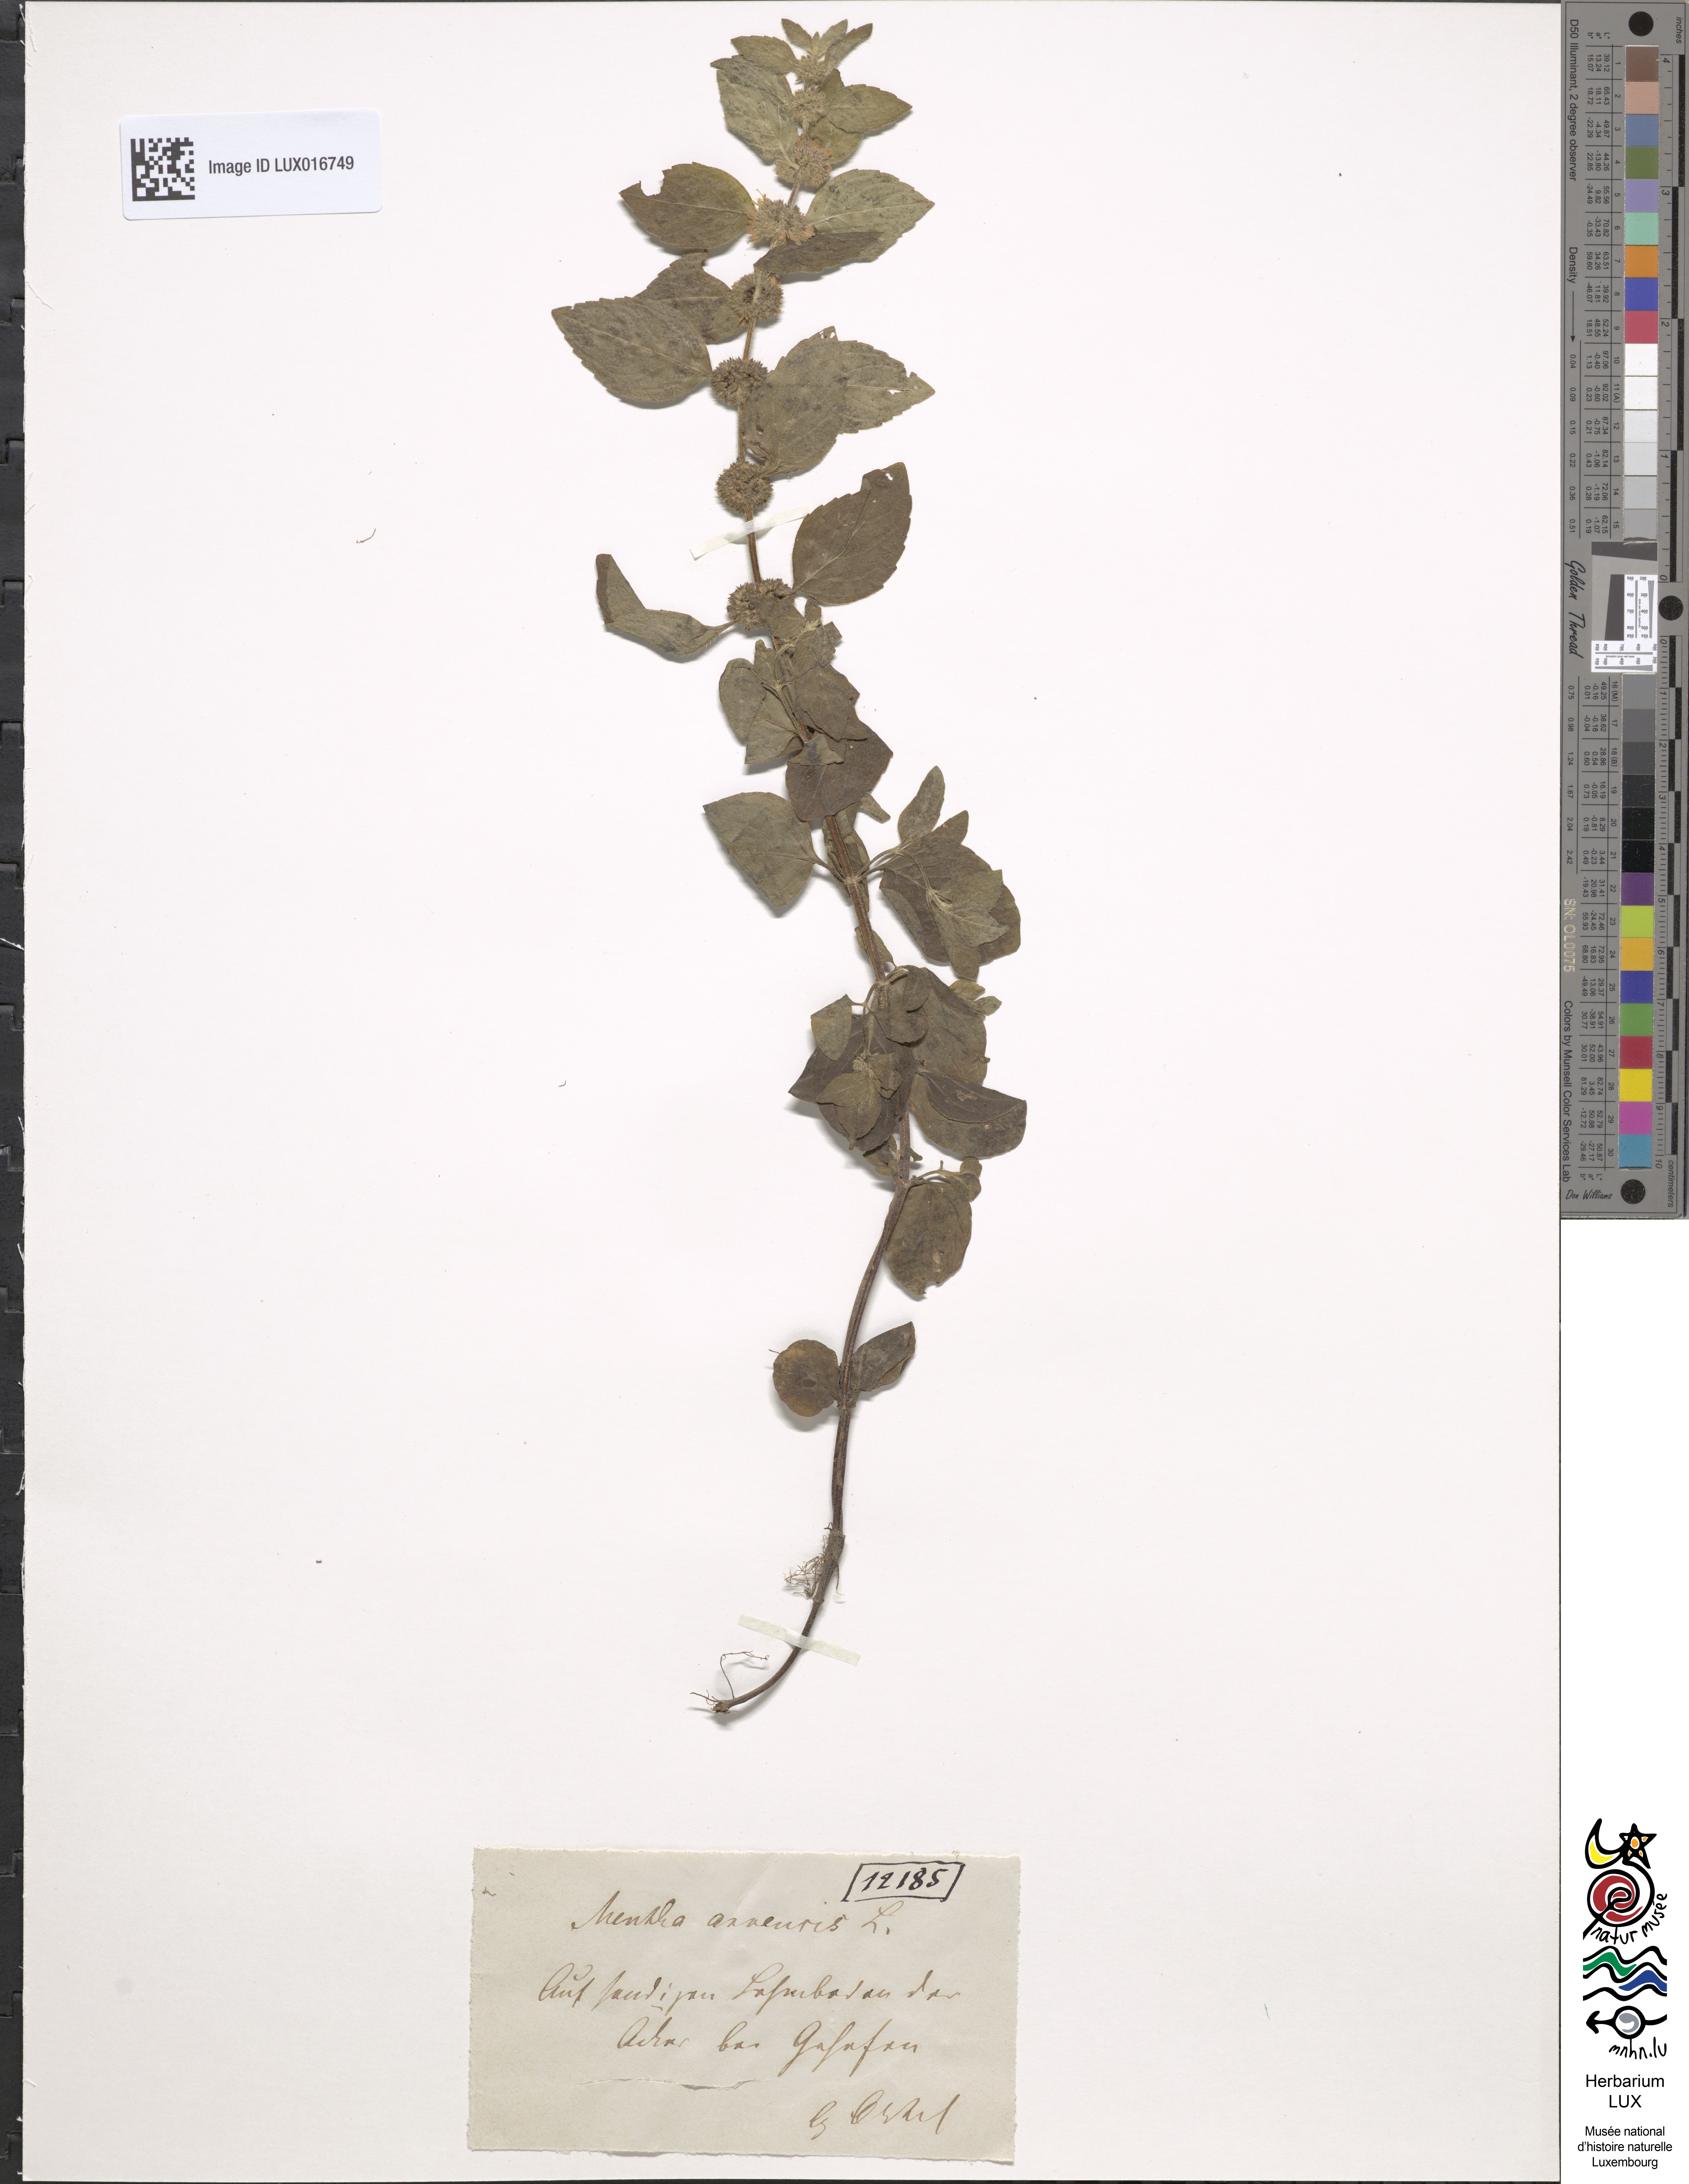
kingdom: Plantae
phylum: Tracheophyta
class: Magnoliopsida
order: Lamiales
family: Lamiaceae
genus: Mentha
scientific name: Mentha arvensis
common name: Corn mint
